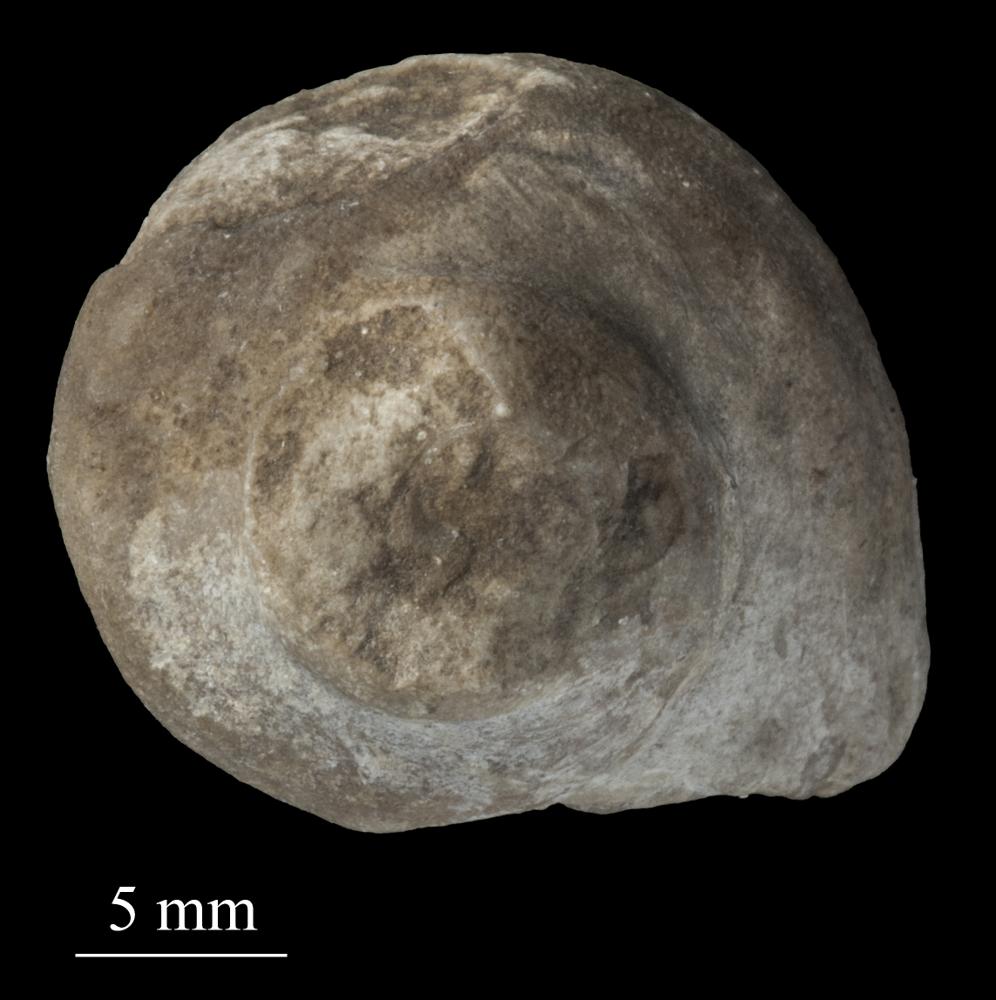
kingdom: Animalia
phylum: Mollusca
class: Gastropoda
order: Pleurotomariida
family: Phanerotrematidae
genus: Brachytomaria
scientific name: Brachytomaria nodulosa
